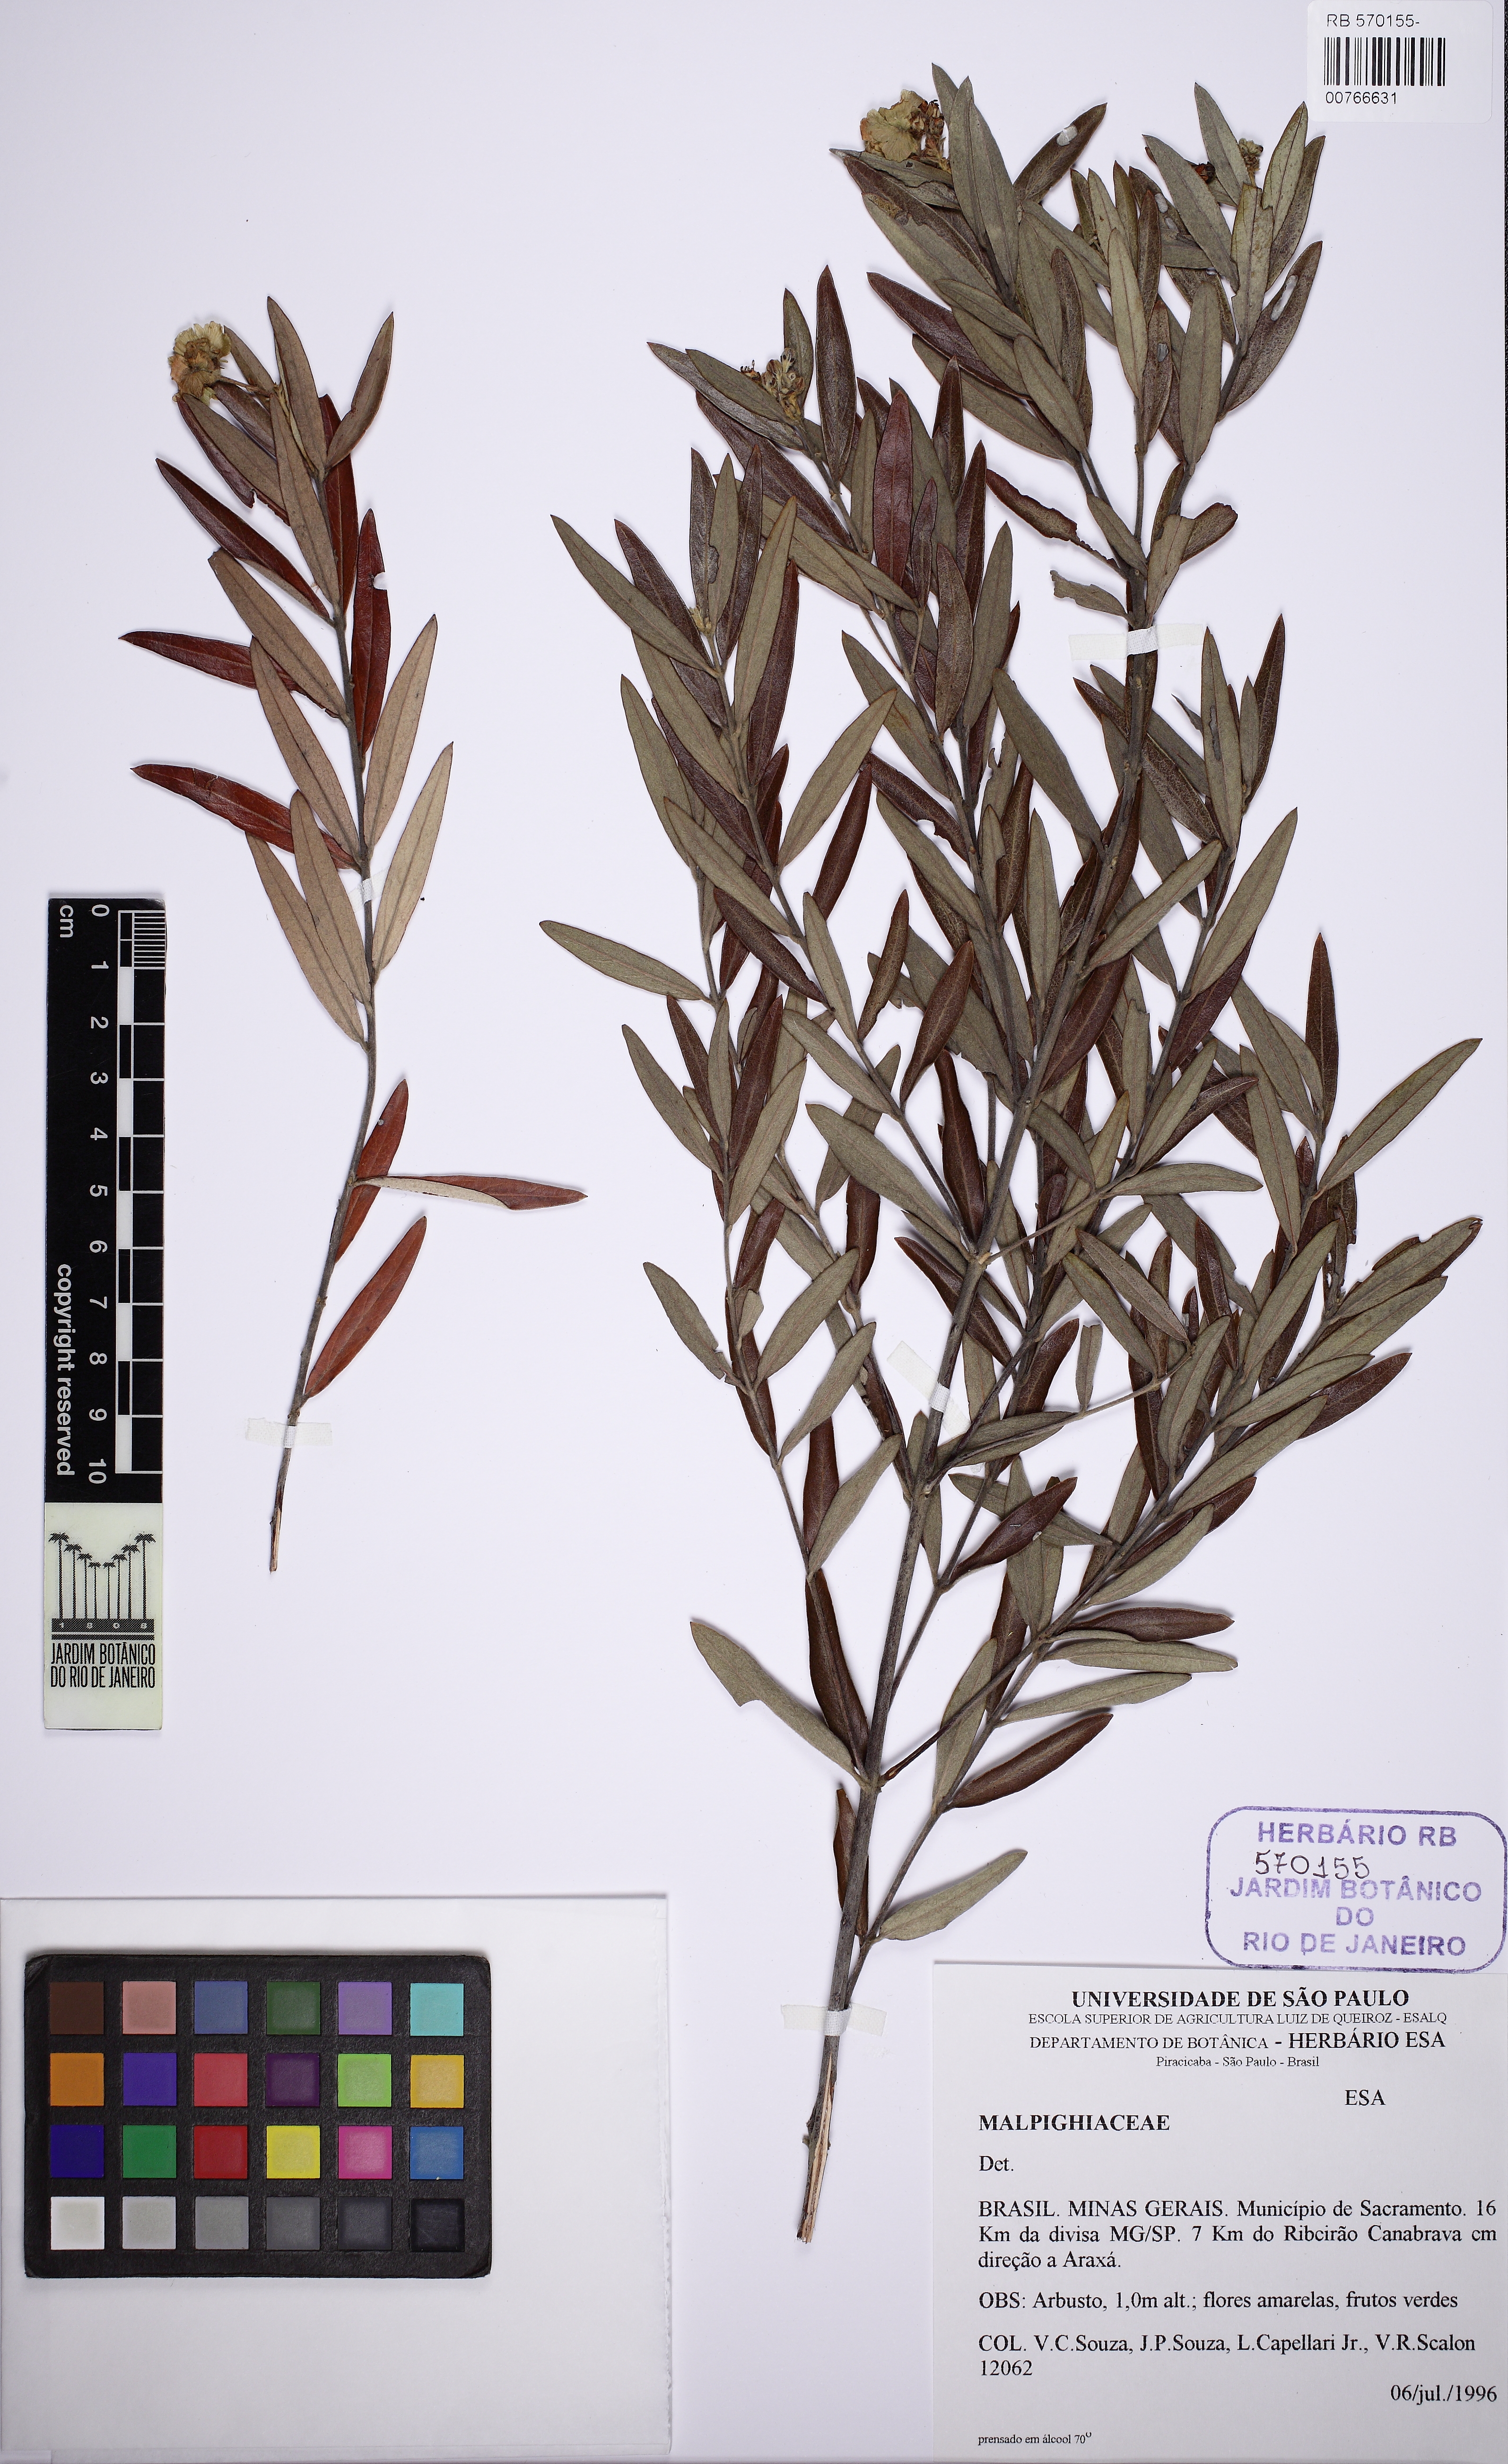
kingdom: Plantae
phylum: Tracheophyta
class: Magnoliopsida
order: Malpighiales
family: Malpighiaceae
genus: Glicophyllum
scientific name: Glicophyllum microphyllum
